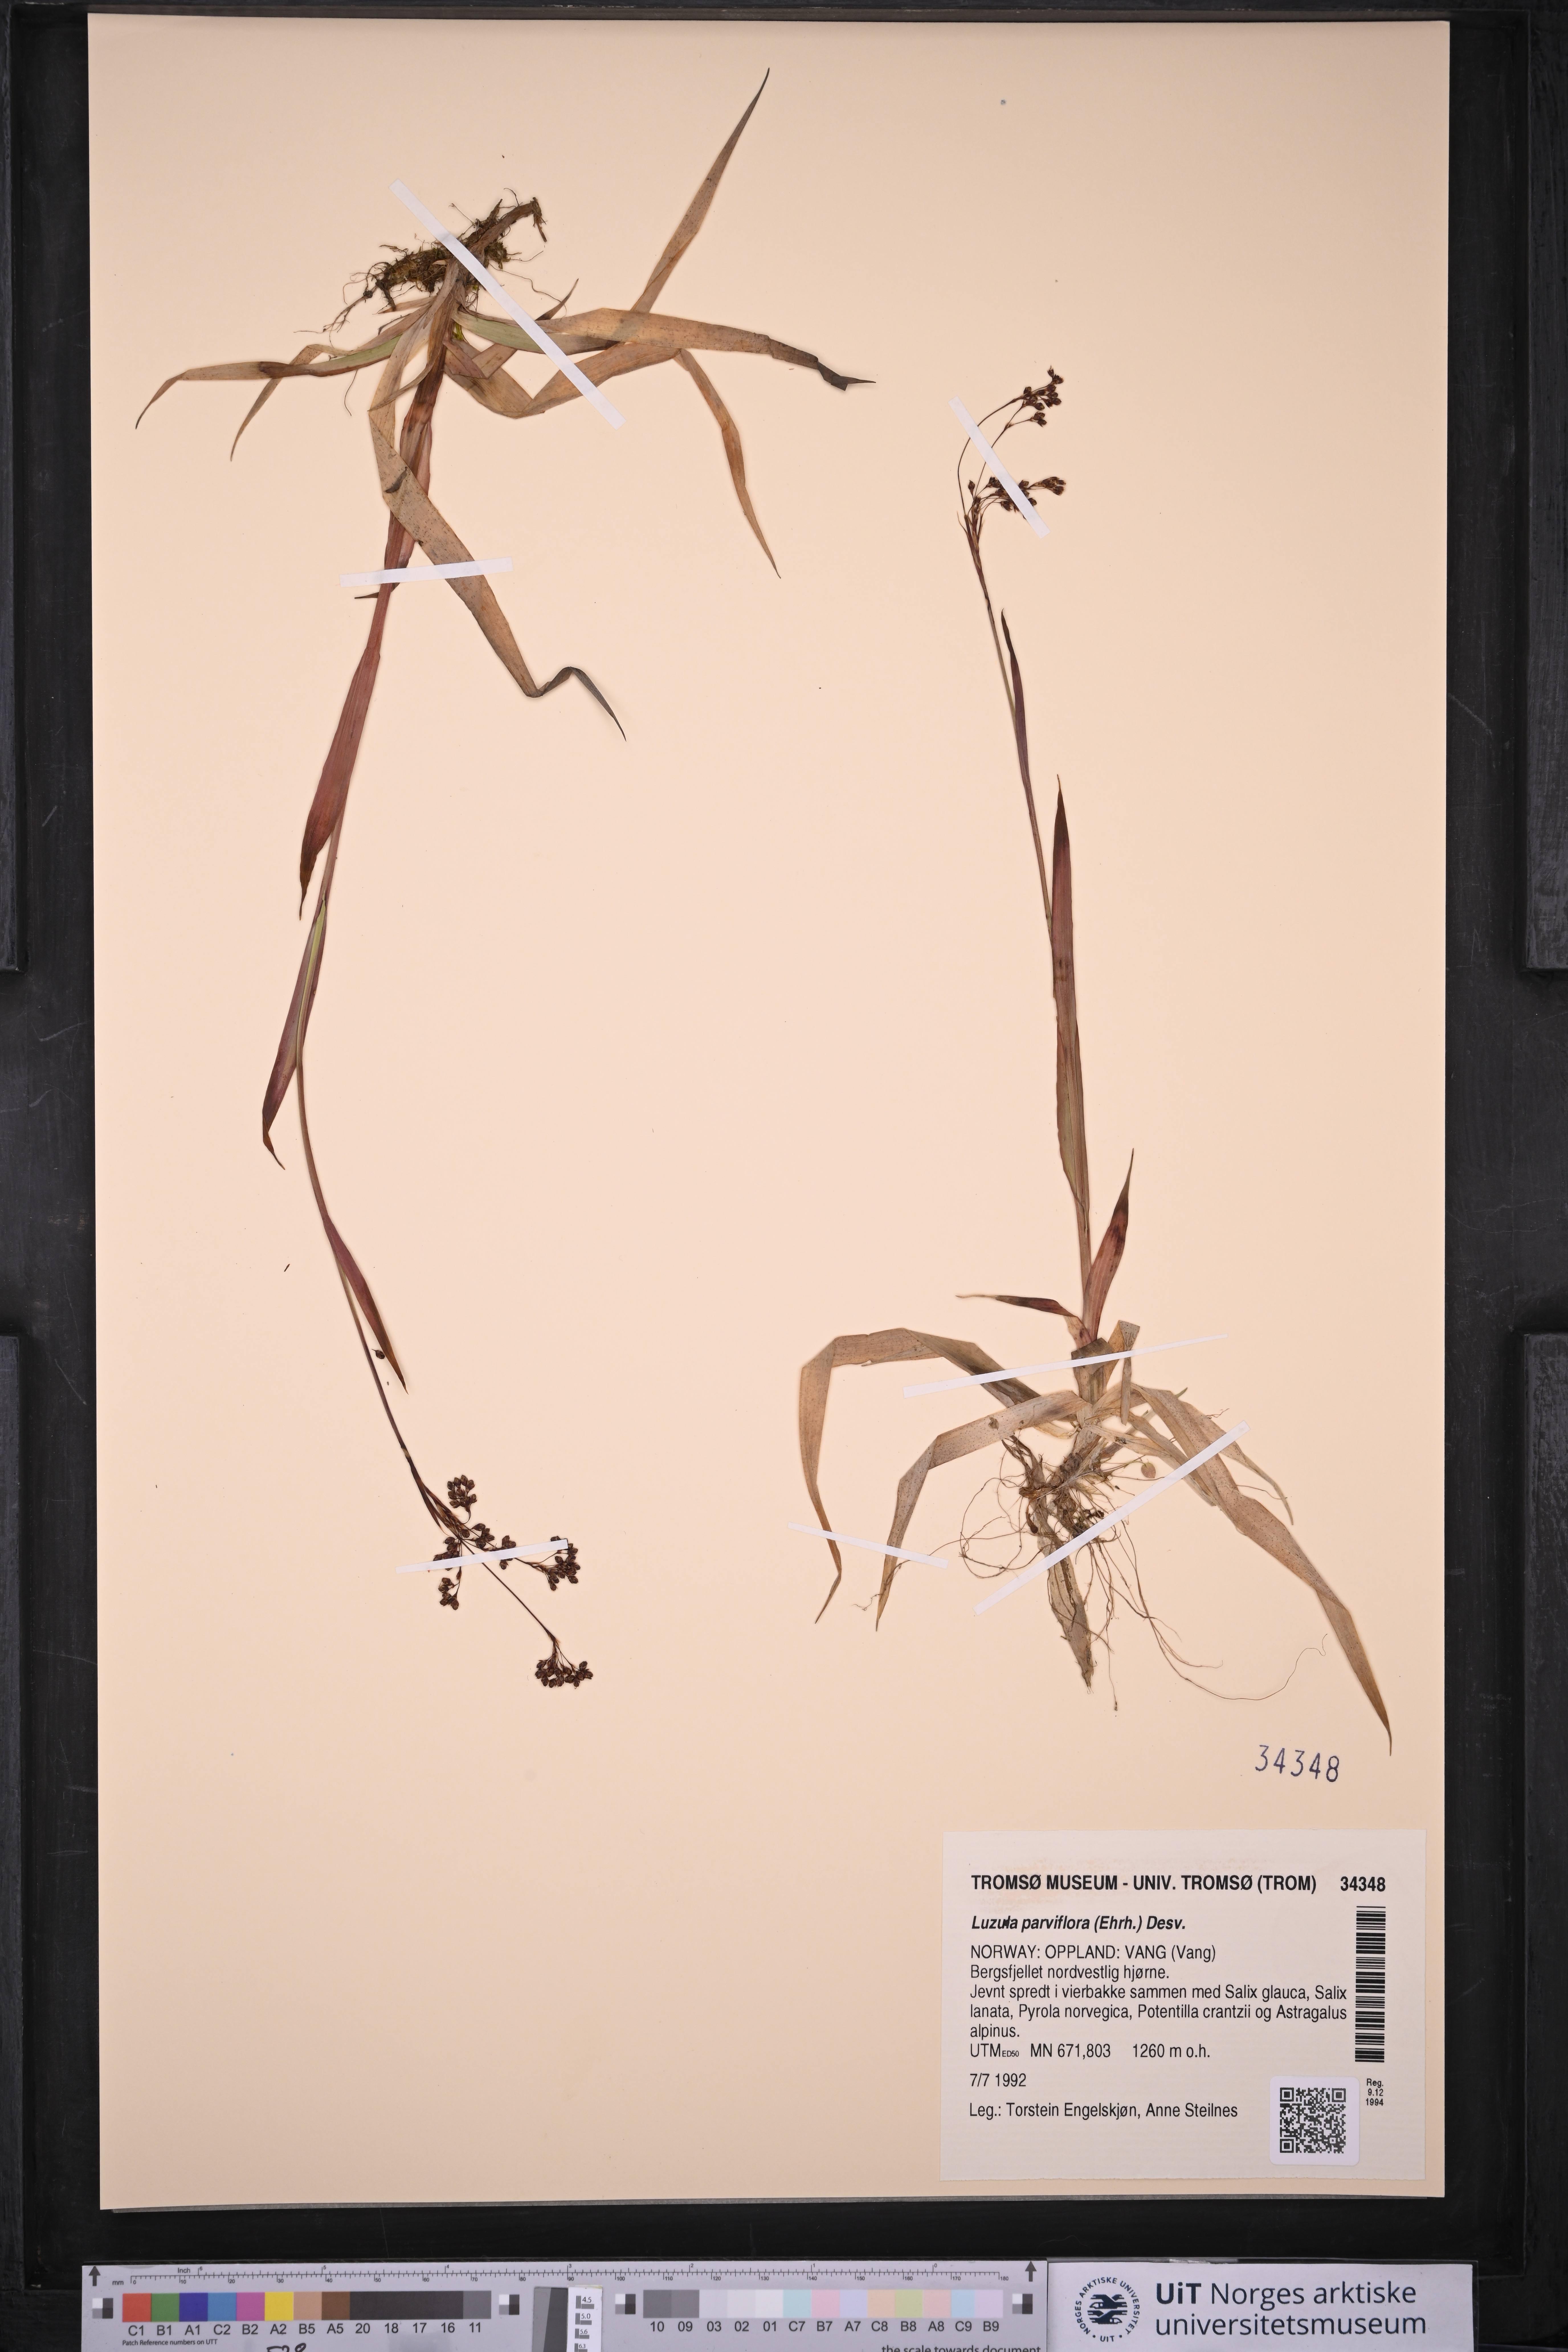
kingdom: Plantae
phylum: Tracheophyta
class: Liliopsida
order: Poales
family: Juncaceae
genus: Luzula
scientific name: Luzula parviflora
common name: Millet woodrush
